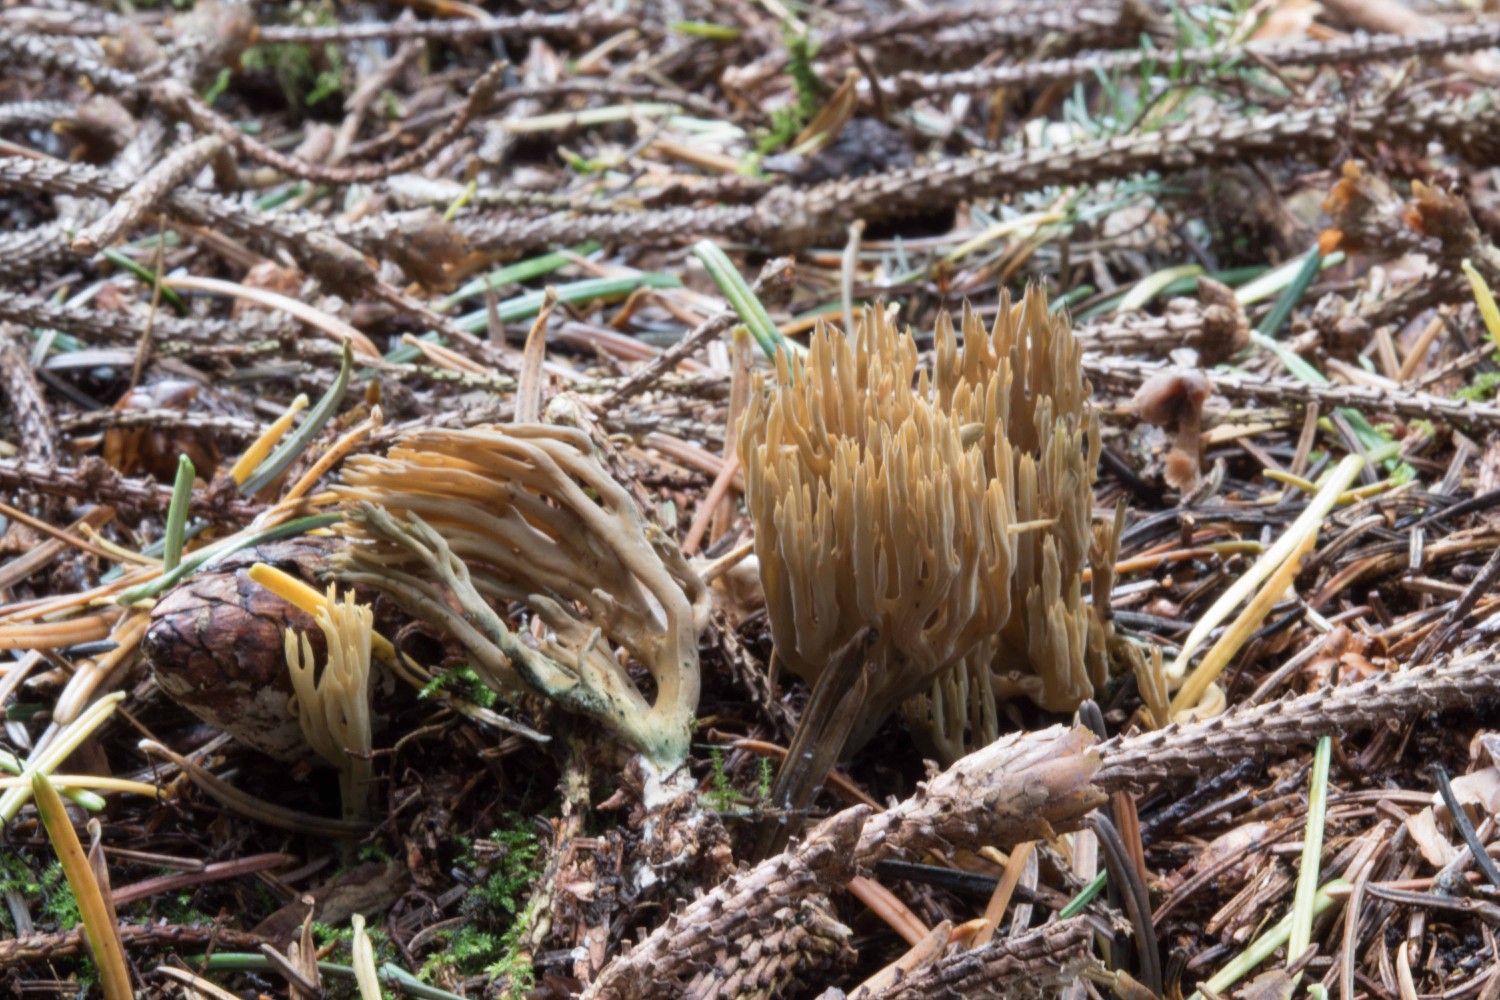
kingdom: Fungi
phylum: Basidiomycota
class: Agaricomycetes
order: Gomphales
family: Gomphaceae
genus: Phaeoclavulina
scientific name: Phaeoclavulina abietina
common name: gulgrøn koralsvamp
